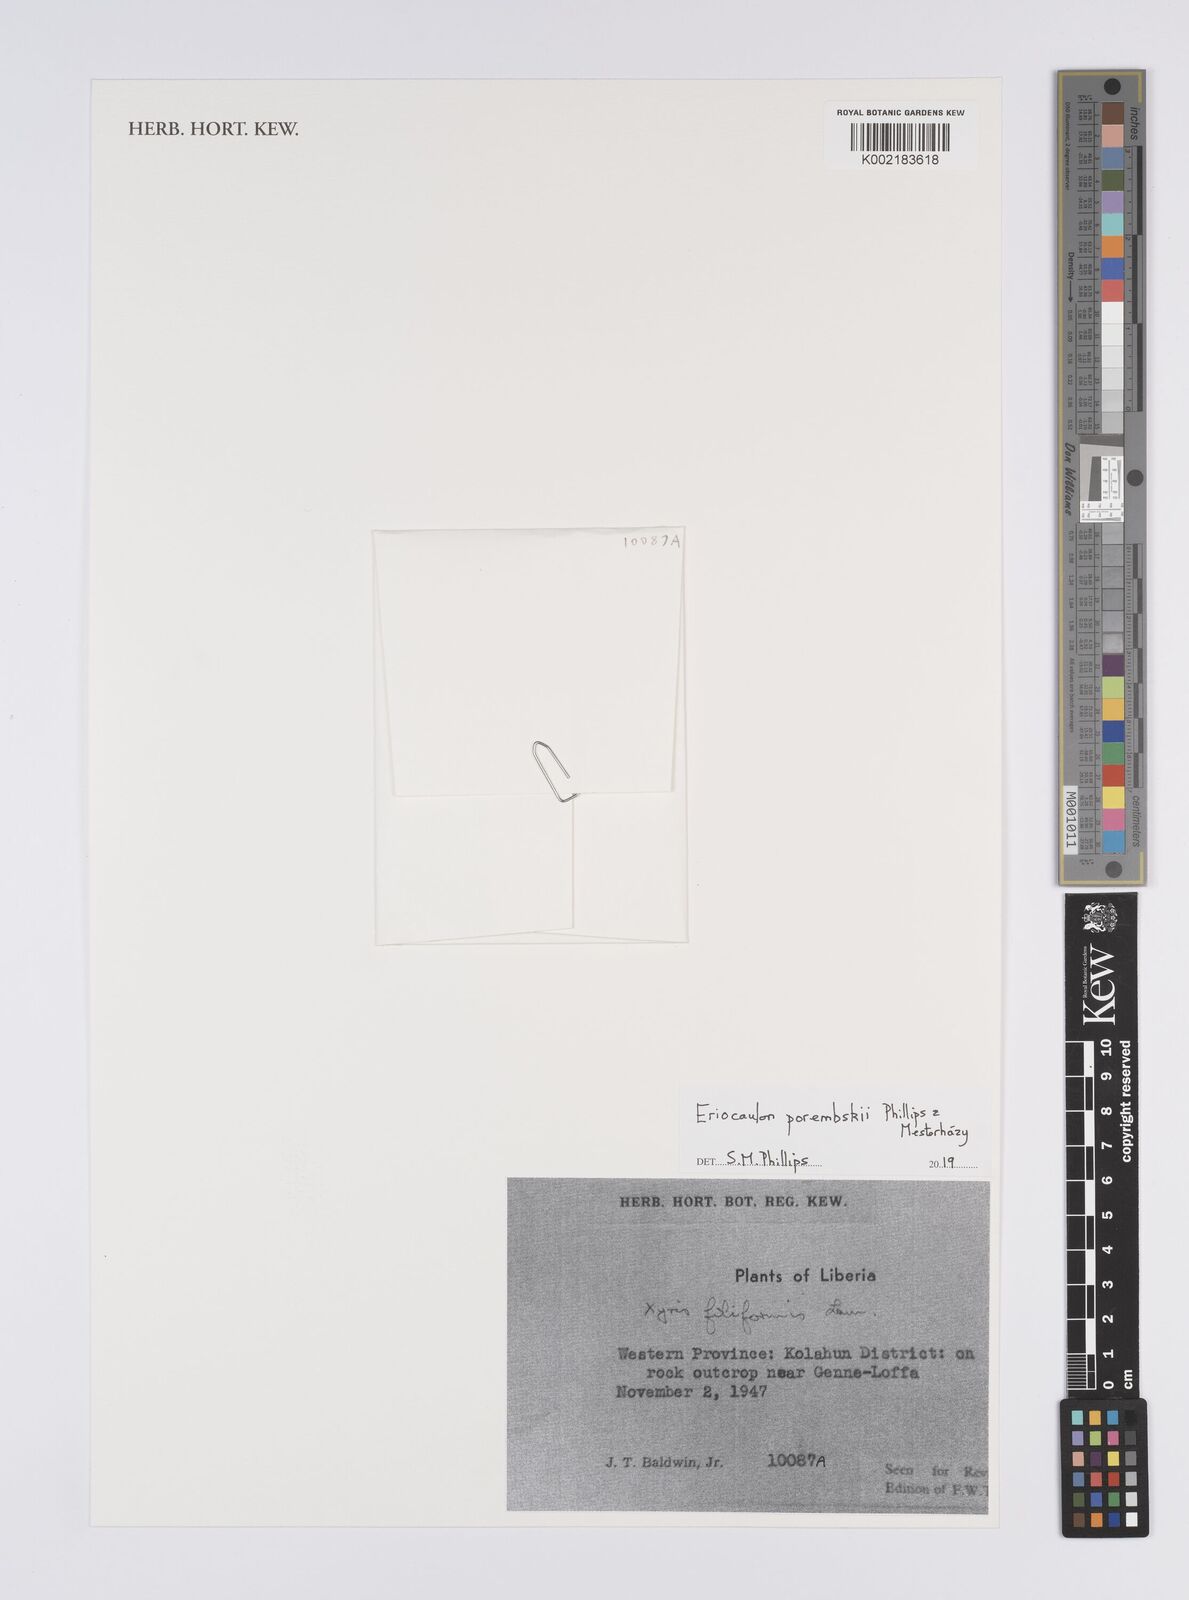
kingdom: Plantae
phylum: Tracheophyta
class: Liliopsida
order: Poales
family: Eriocaulaceae
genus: Eriocaulon
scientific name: Eriocaulon porembskii
